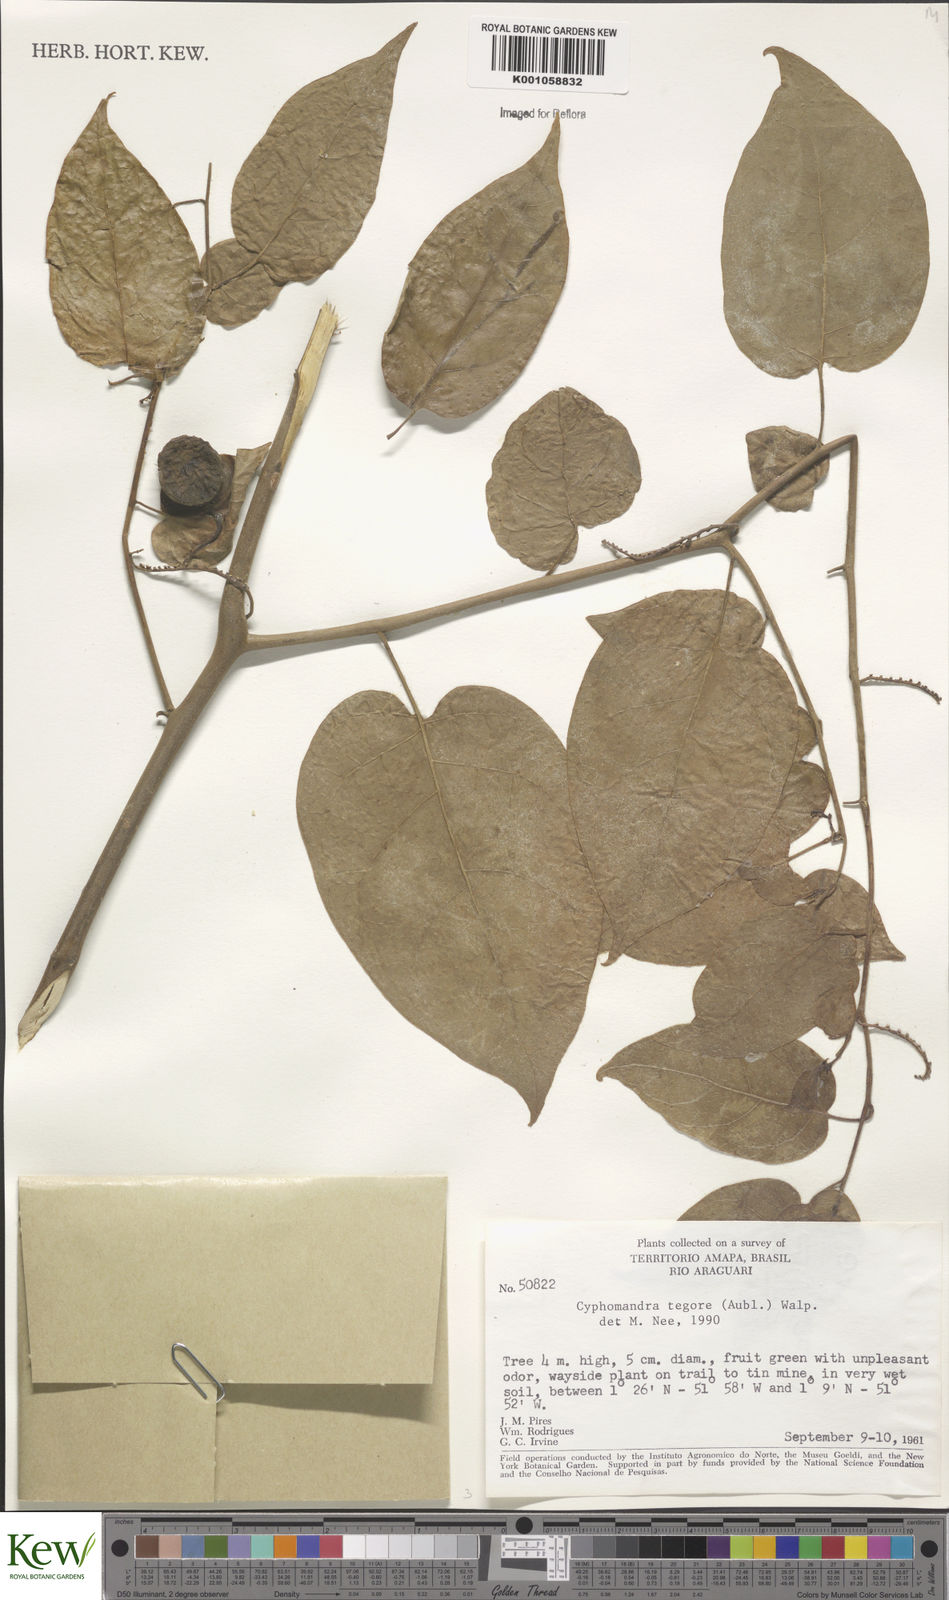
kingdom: Plantae
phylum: Tracheophyta
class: Magnoliopsida
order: Solanales
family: Solanaceae
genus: Solanum
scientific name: Solanum tegore
